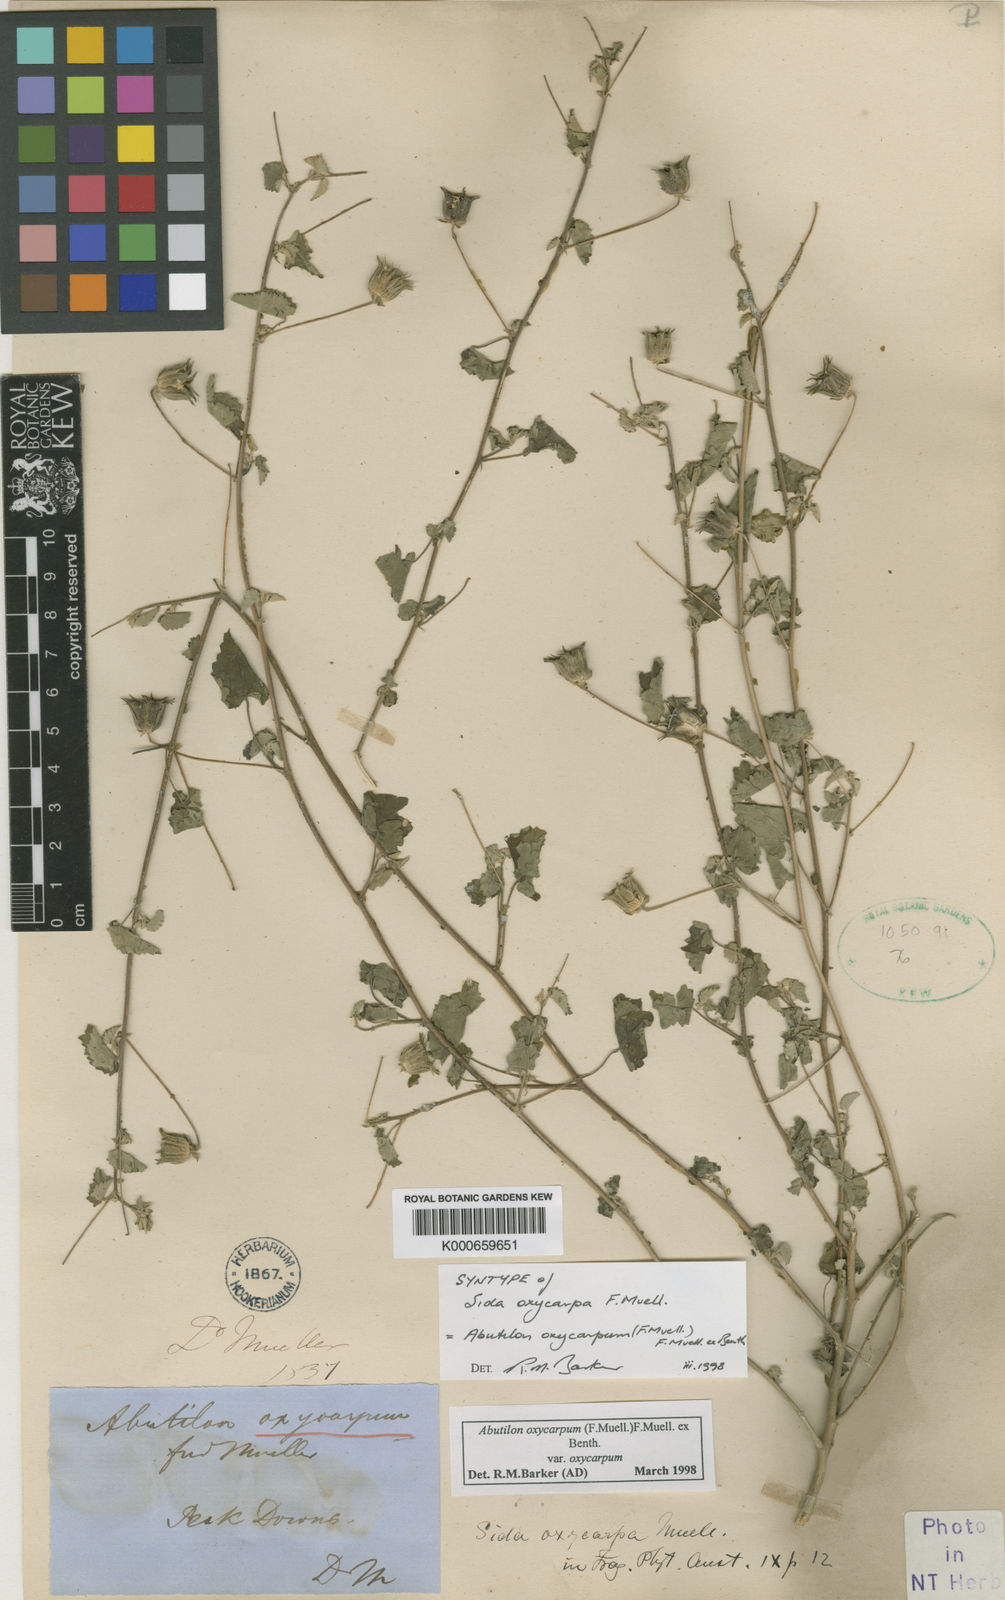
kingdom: Plantae
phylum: Tracheophyta
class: Magnoliopsida
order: Malvales
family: Malvaceae
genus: Abutilon
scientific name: Abutilon oxycarpum
